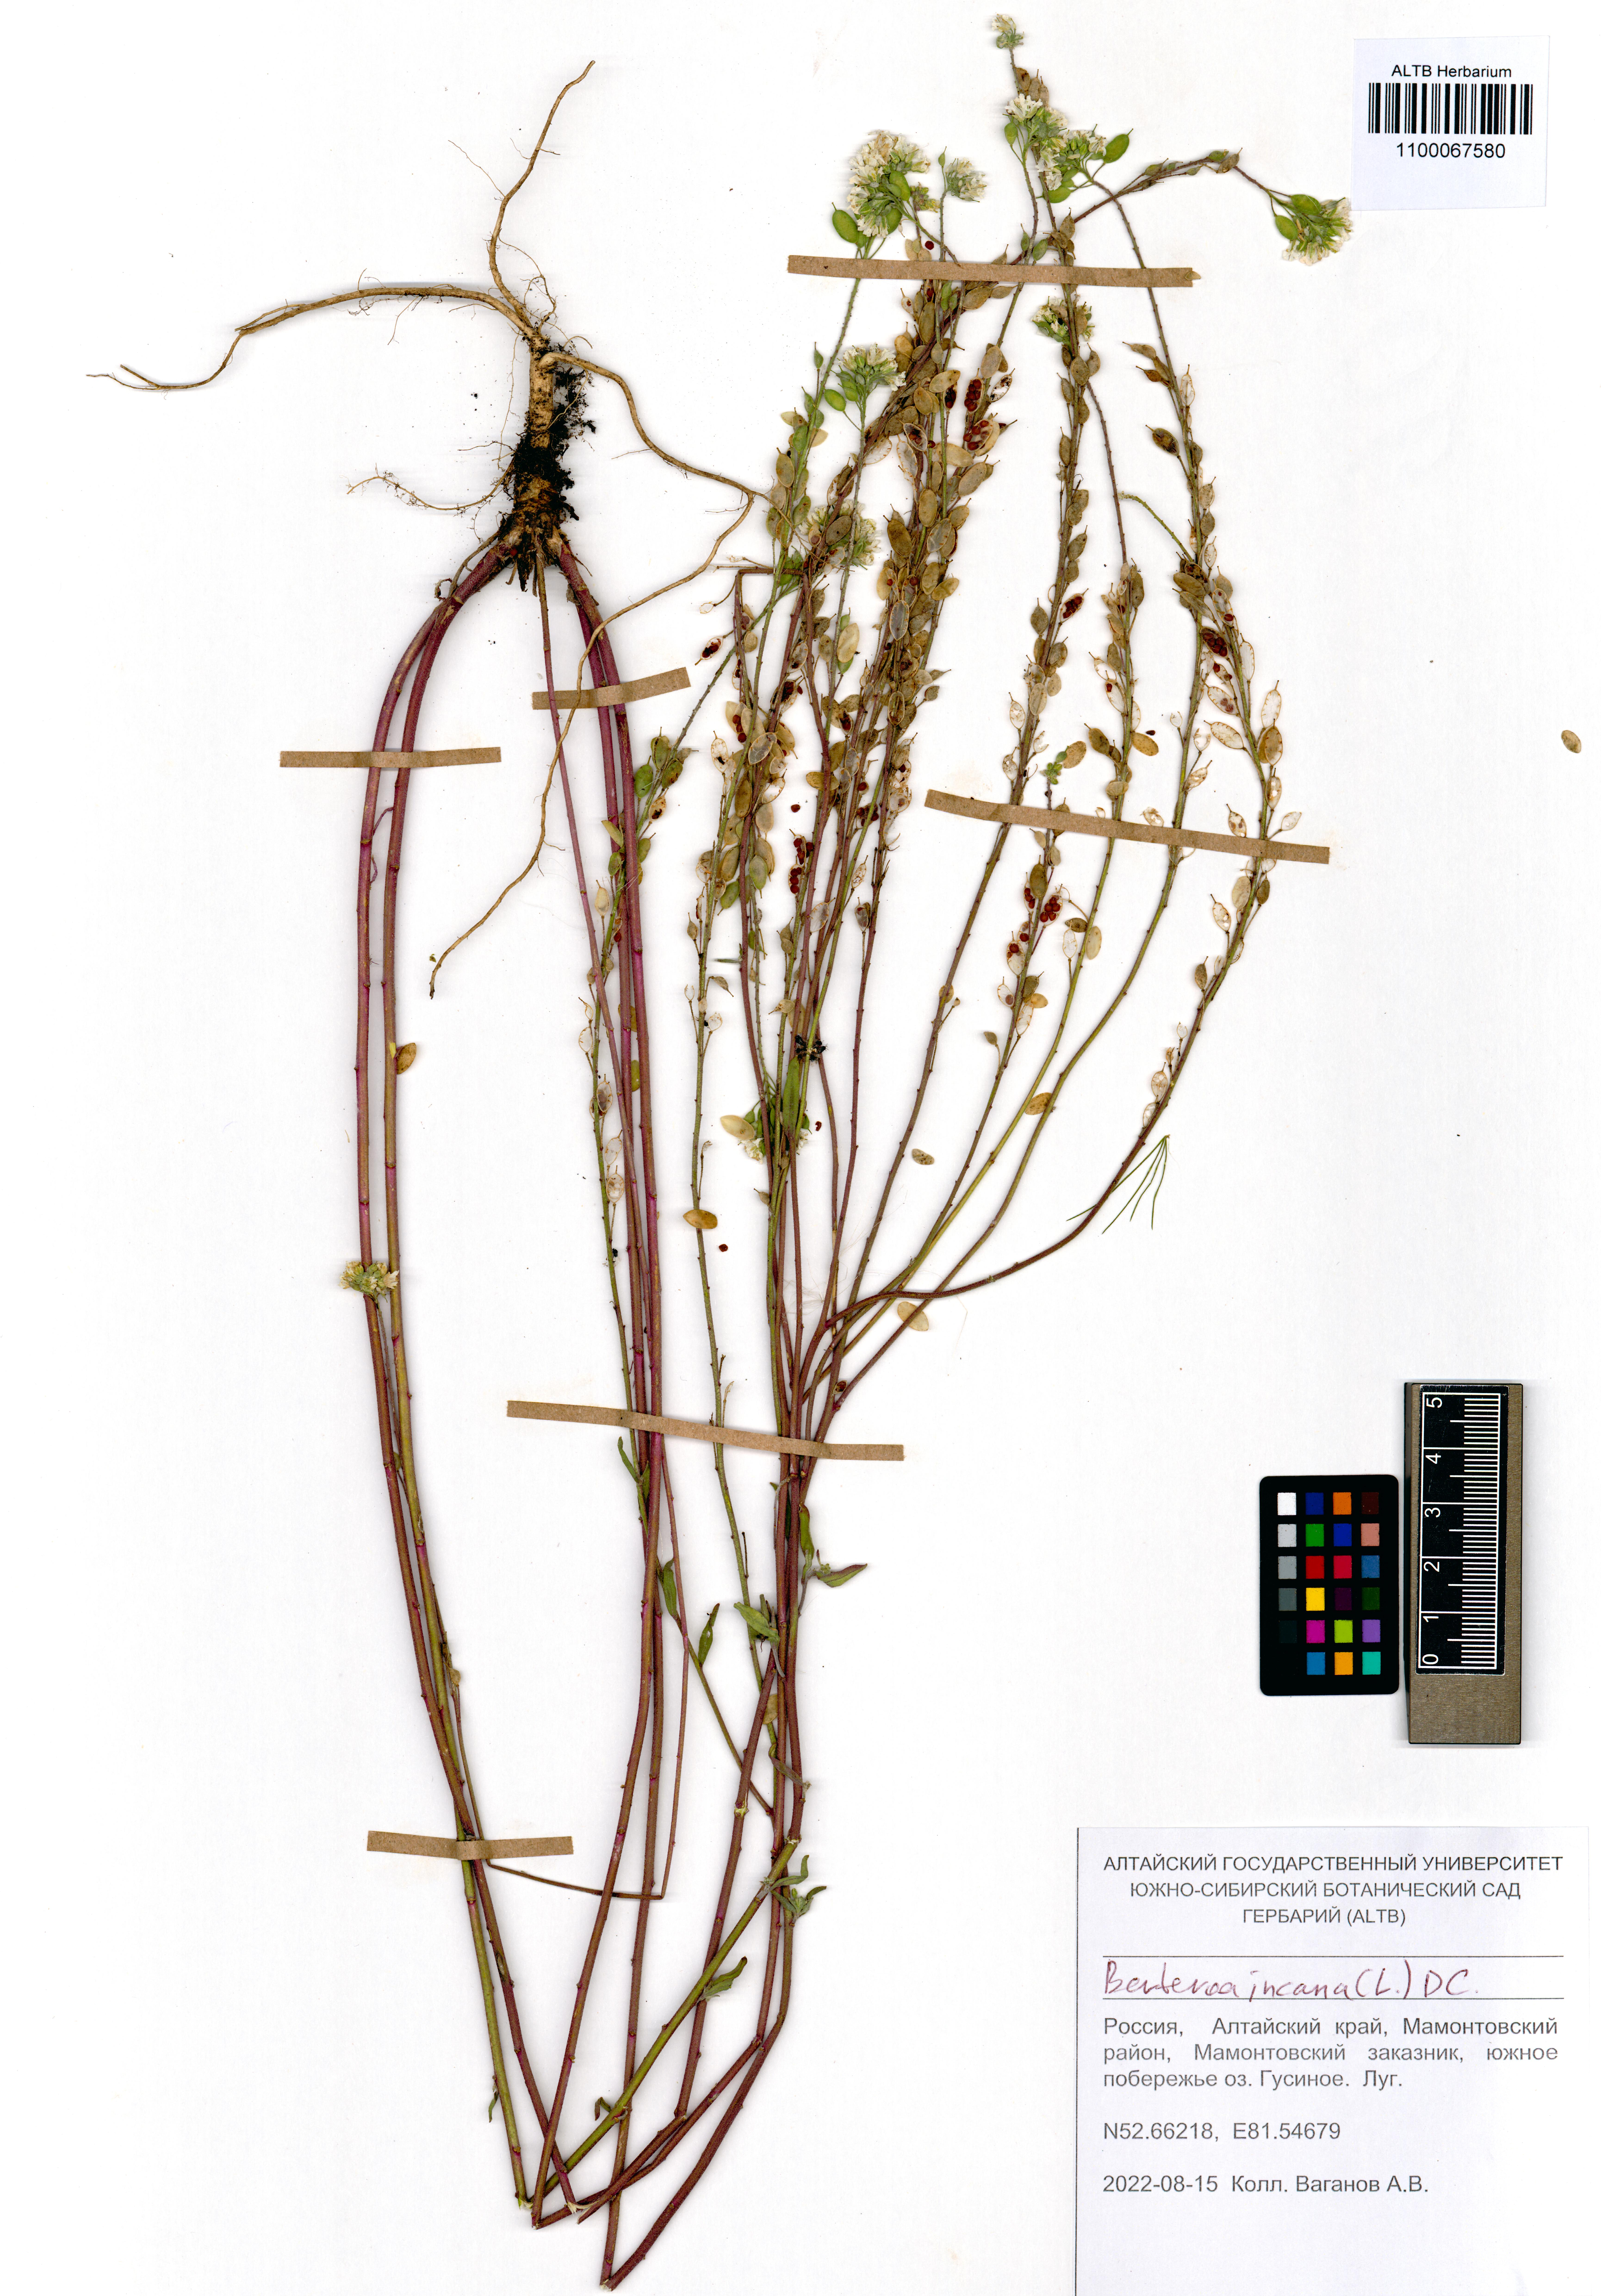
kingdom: Plantae
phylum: Tracheophyta
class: Magnoliopsida
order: Brassicales
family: Brassicaceae
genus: Berteroa
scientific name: Berteroa incana
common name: Hoary alison
